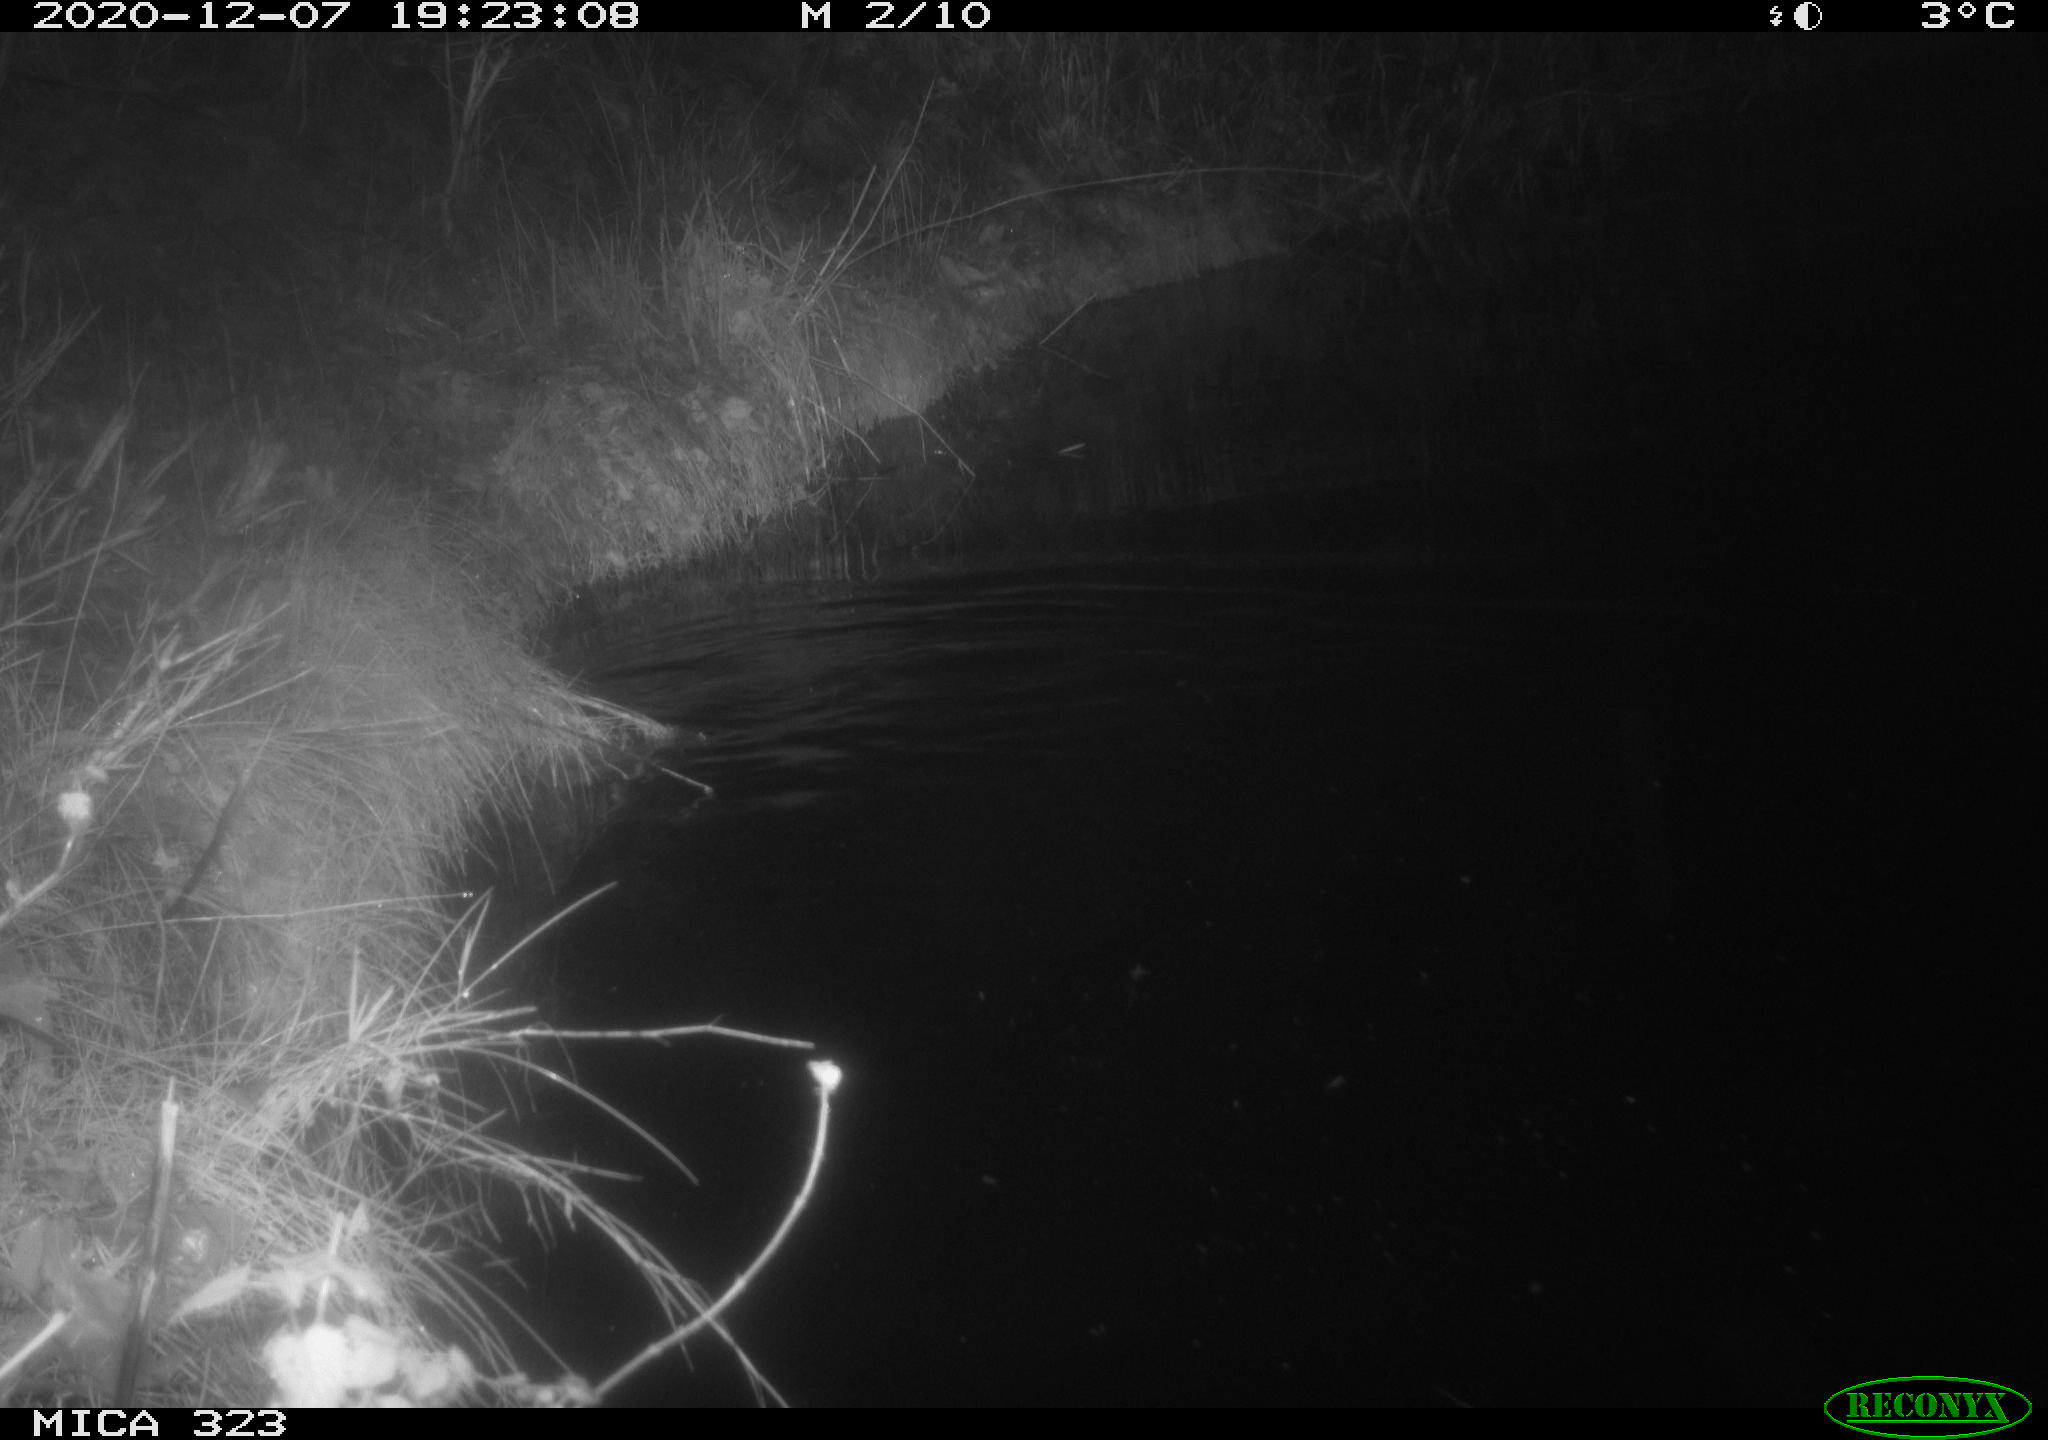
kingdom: Animalia
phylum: Chordata
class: Mammalia
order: Rodentia
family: Myocastoridae
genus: Myocastor
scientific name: Myocastor coypus
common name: Coypu
